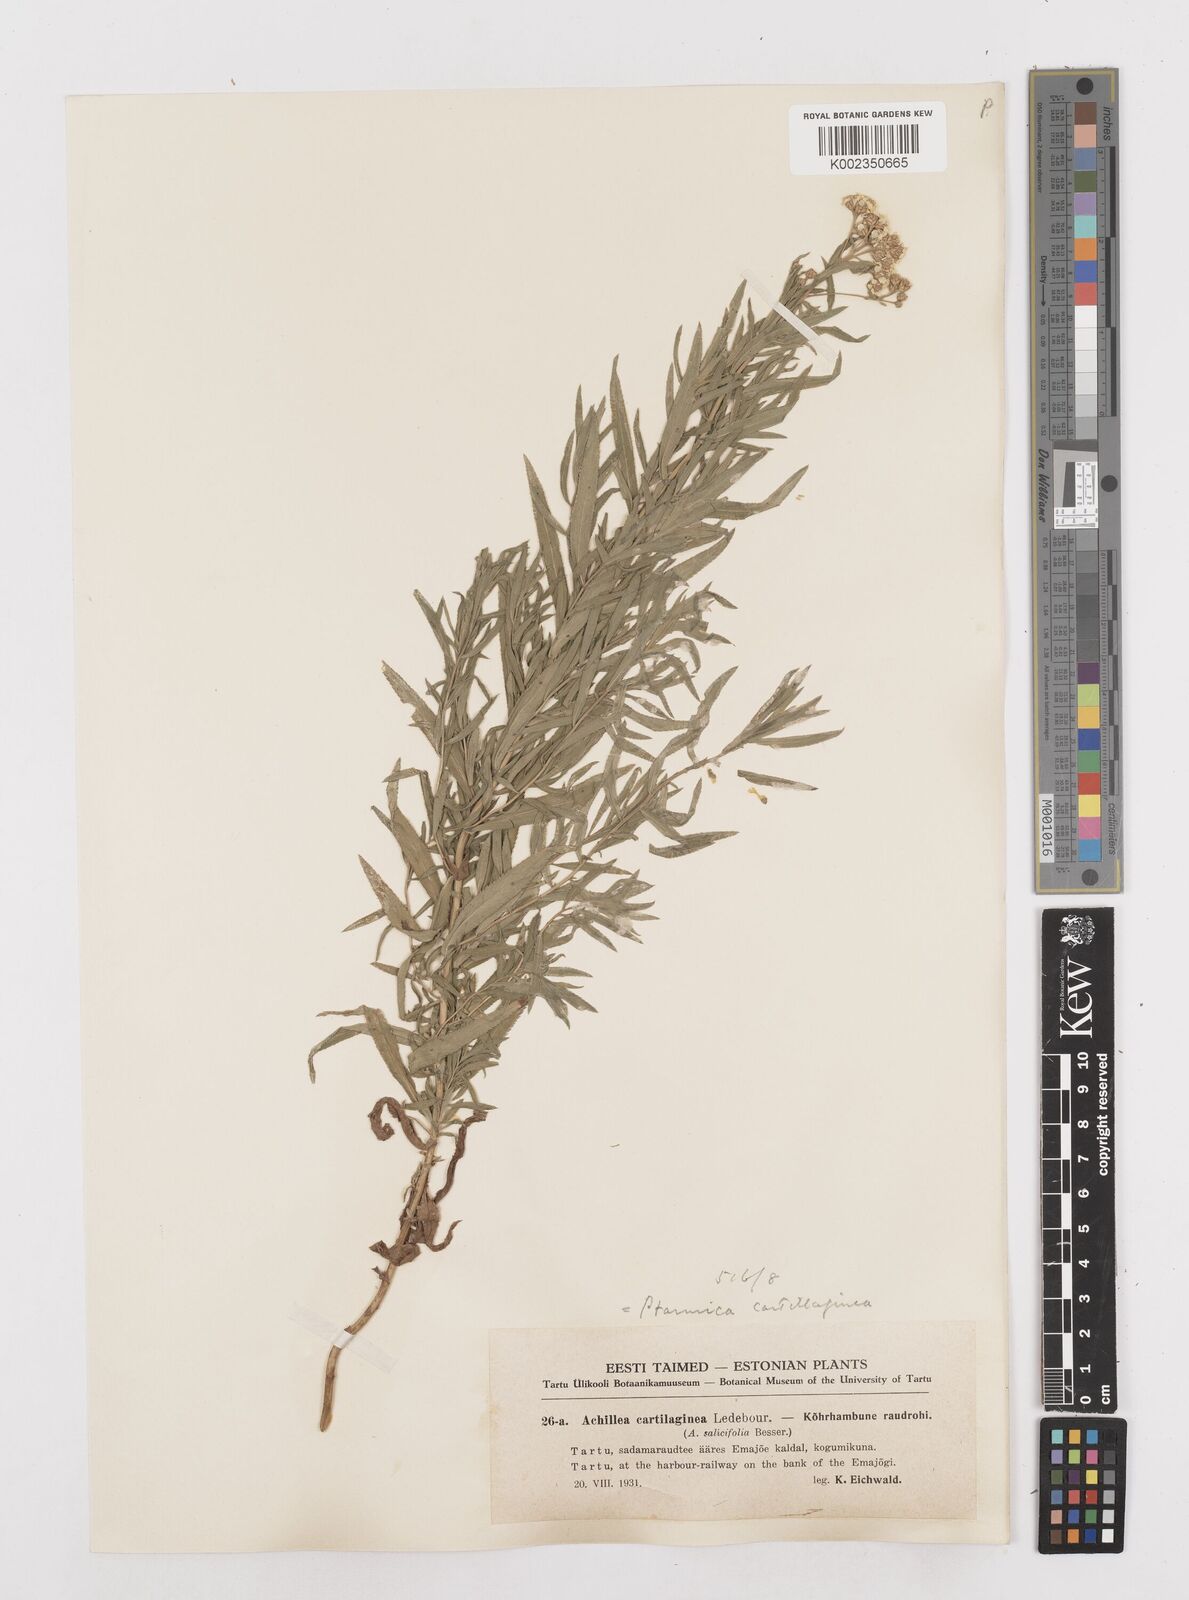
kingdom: Plantae
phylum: Tracheophyta
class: Magnoliopsida
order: Asterales
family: Asteraceae
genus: Achillea
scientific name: Achillea salicifolia
